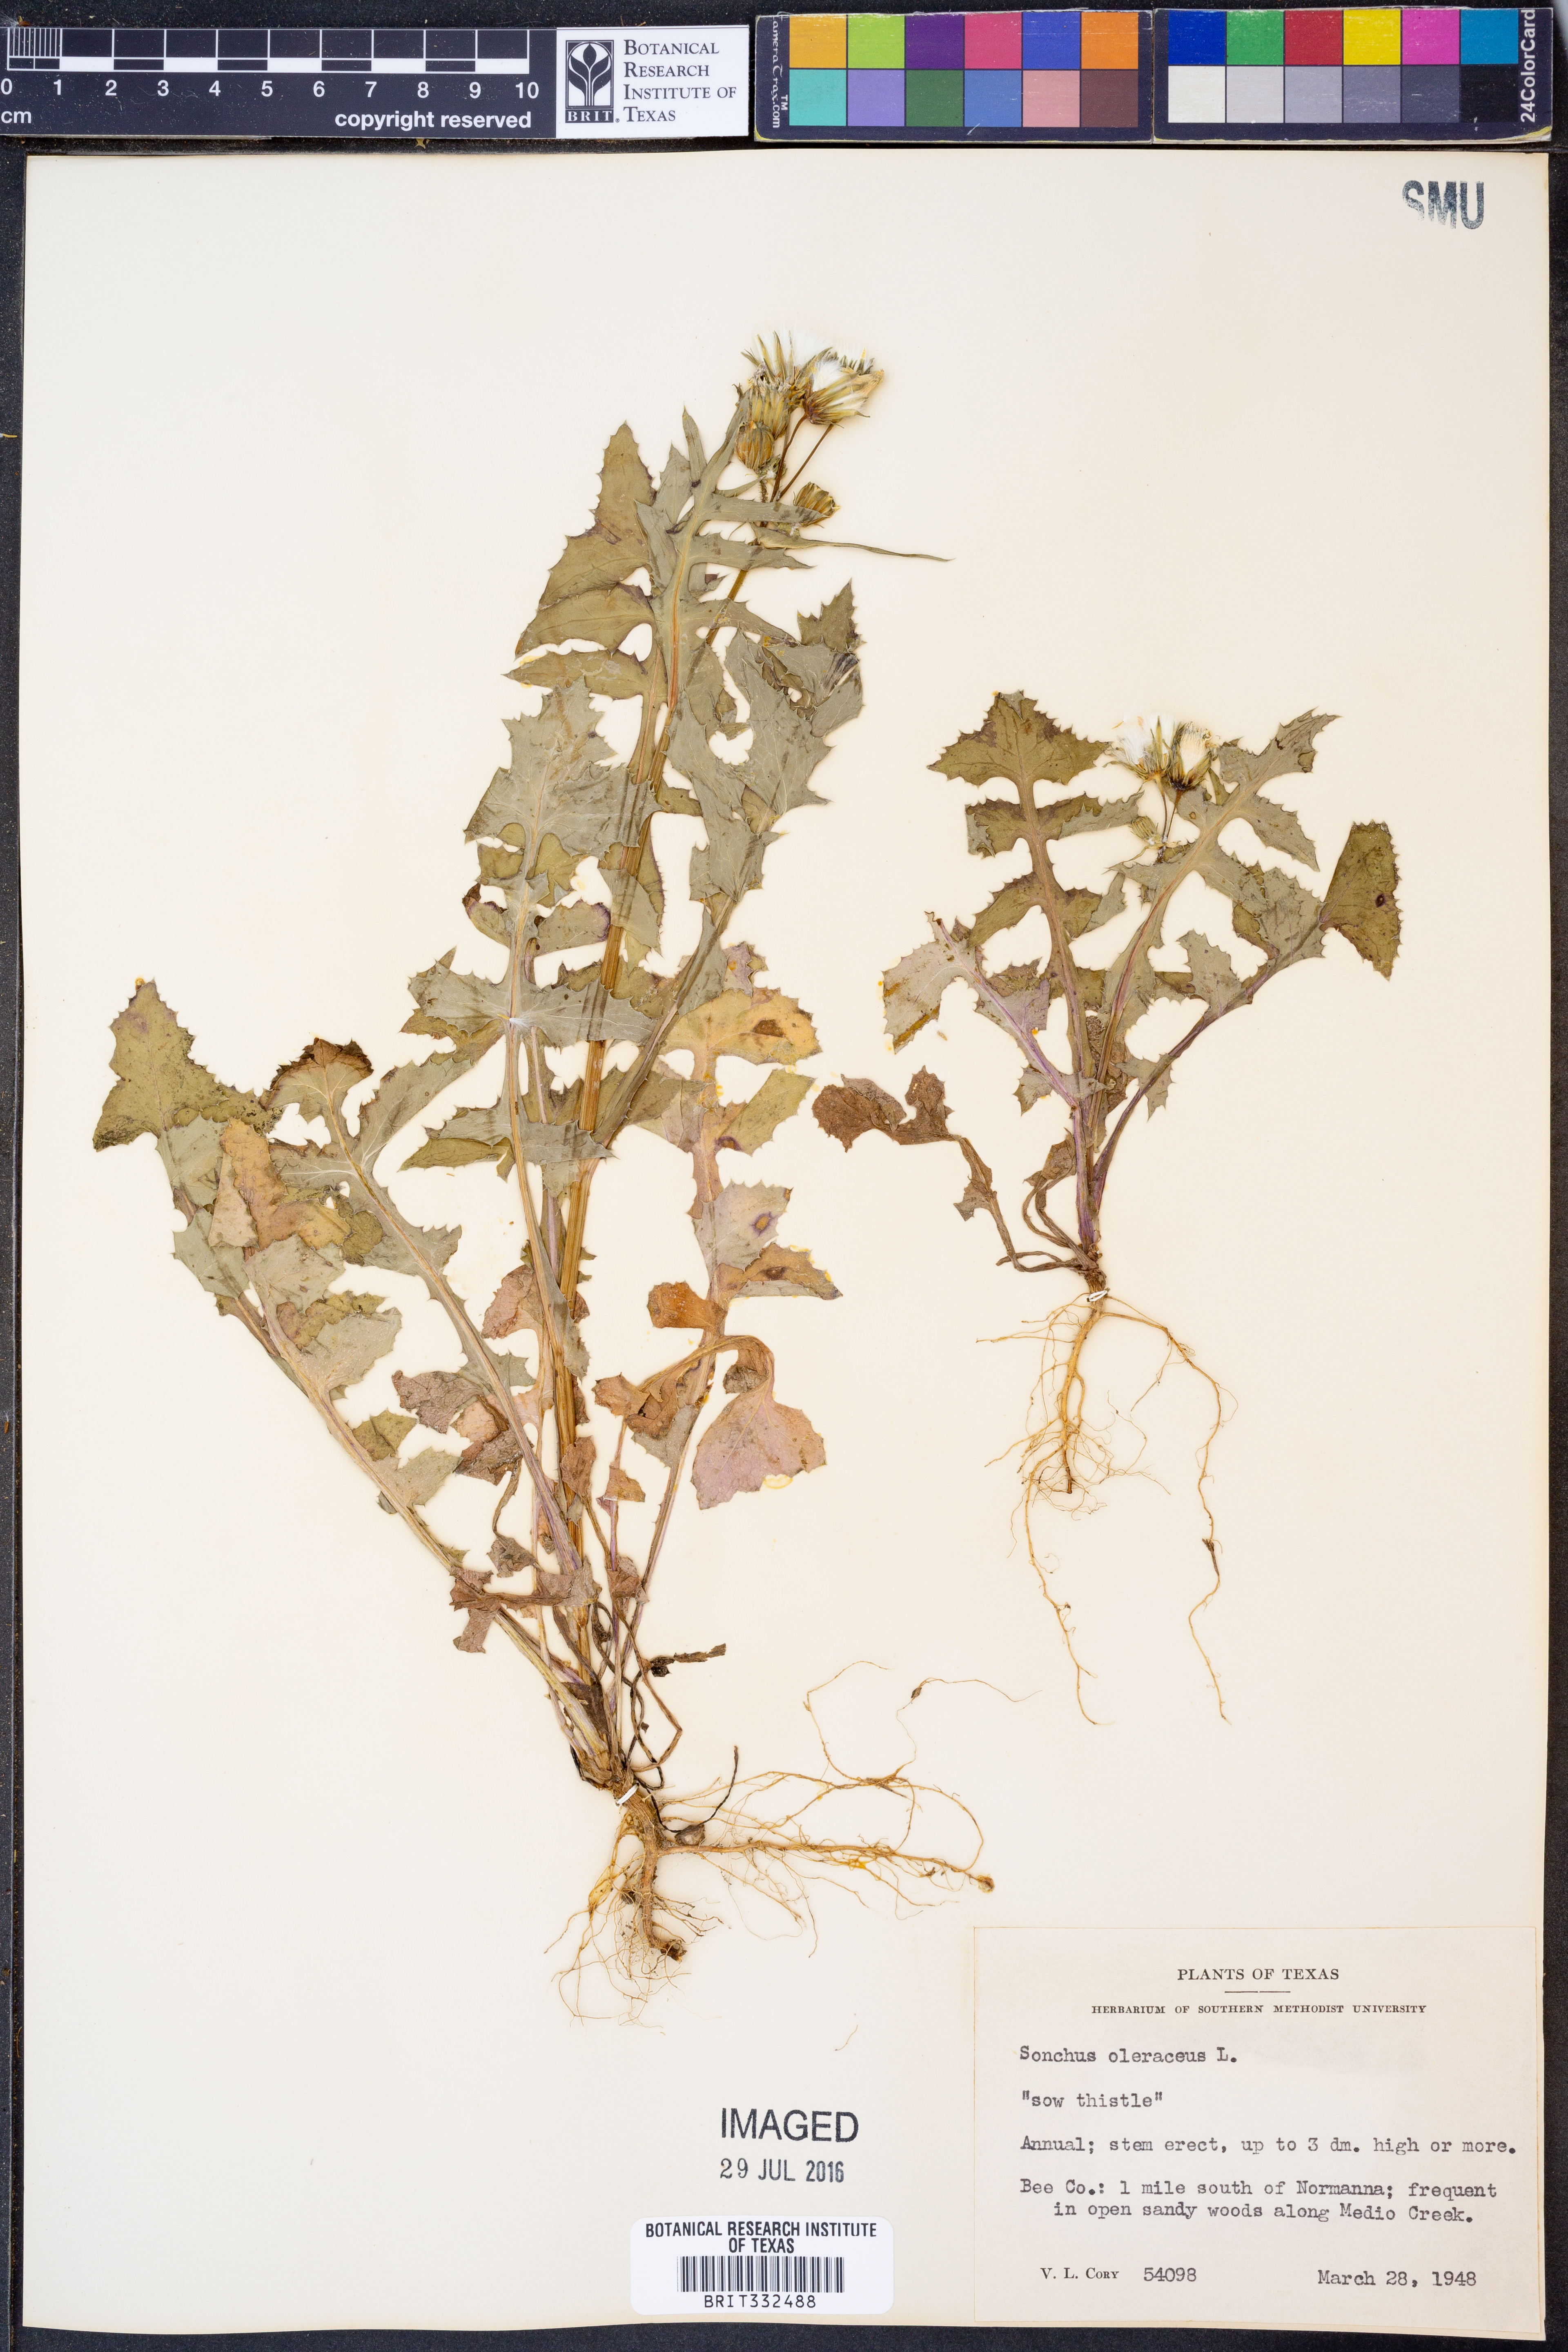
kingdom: Plantae
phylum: Tracheophyta
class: Magnoliopsida
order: Asterales
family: Asteraceae
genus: Sonchus
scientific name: Sonchus oleraceus
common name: Common sowthistle
